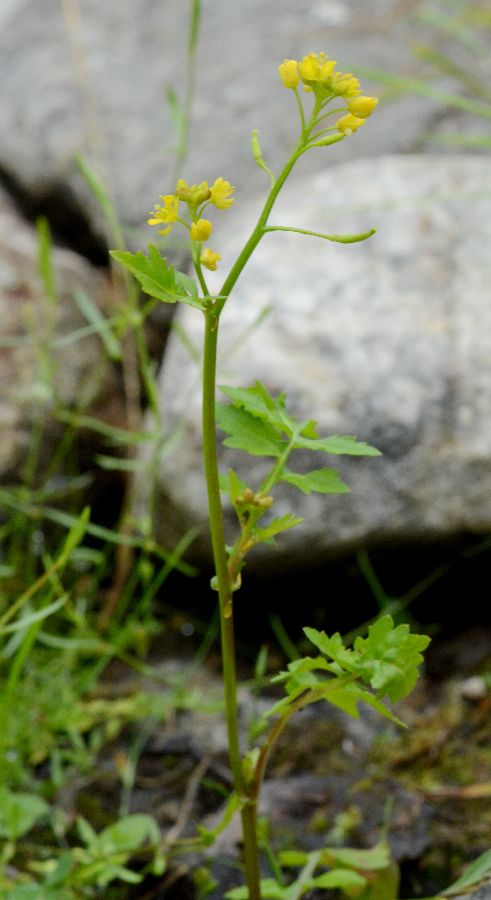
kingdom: Plantae
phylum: Tracheophyta
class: Magnoliopsida
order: Brassicales
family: Brassicaceae
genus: Rorippa
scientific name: Rorippa palustris
